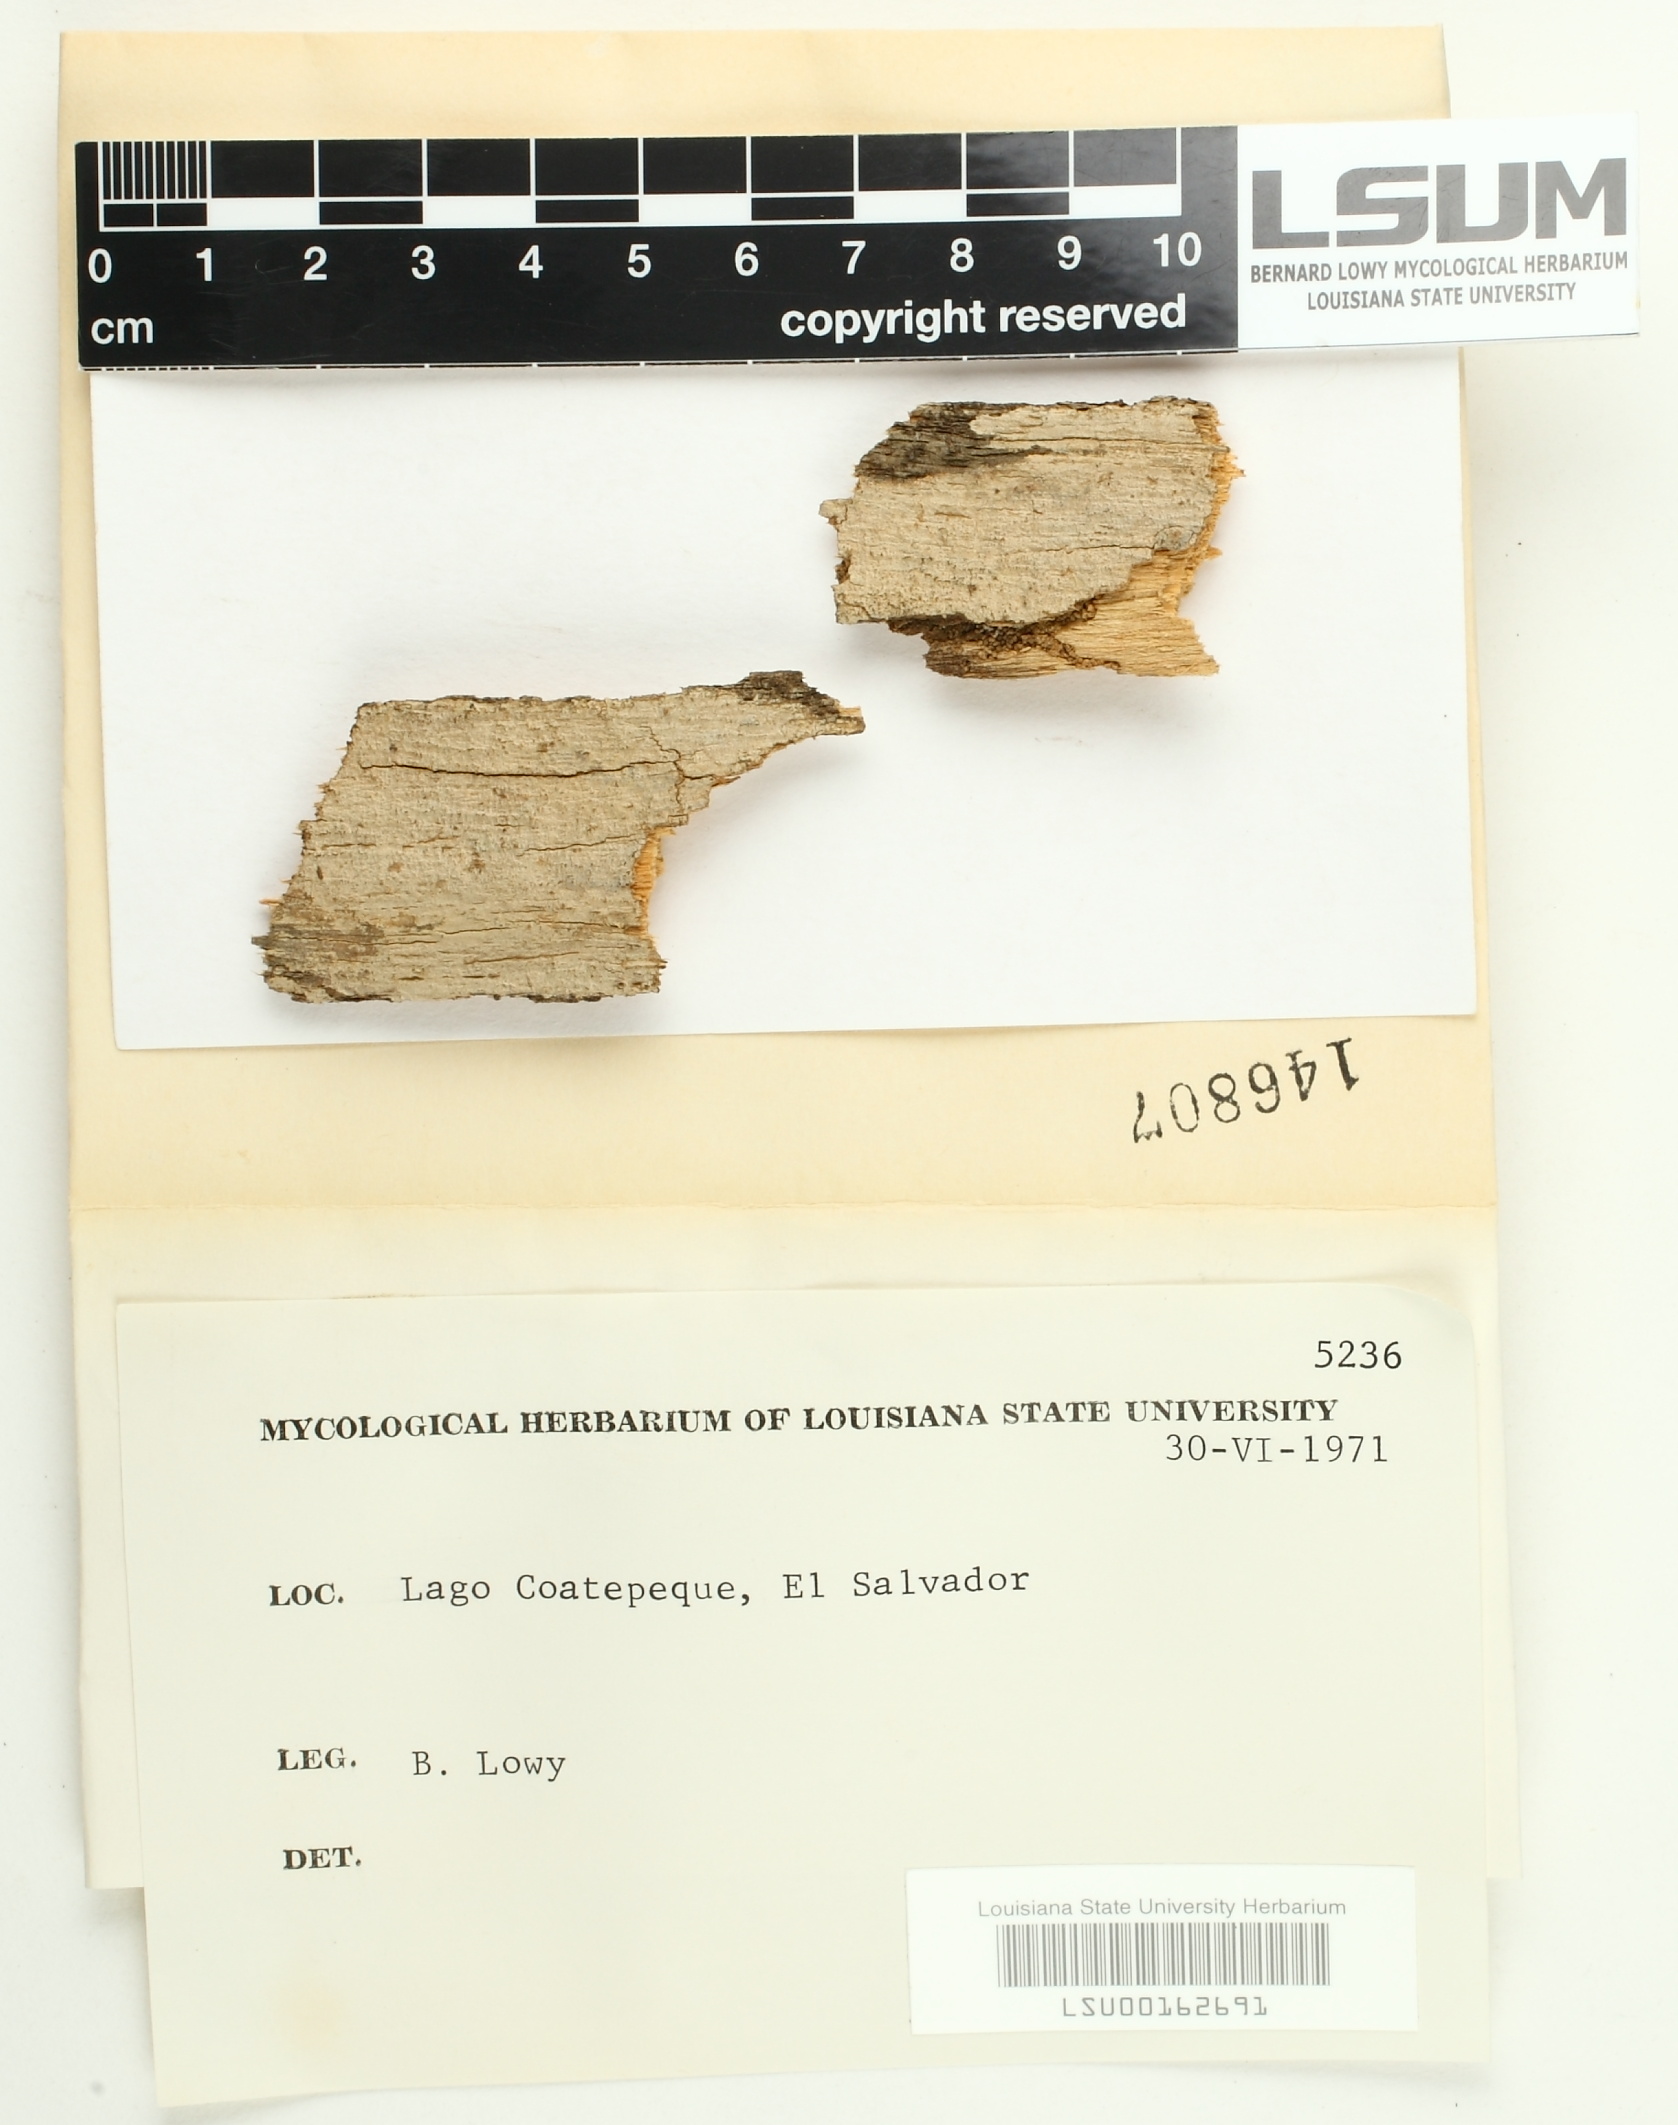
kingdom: Fungi
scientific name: Fungi
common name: Fungi
